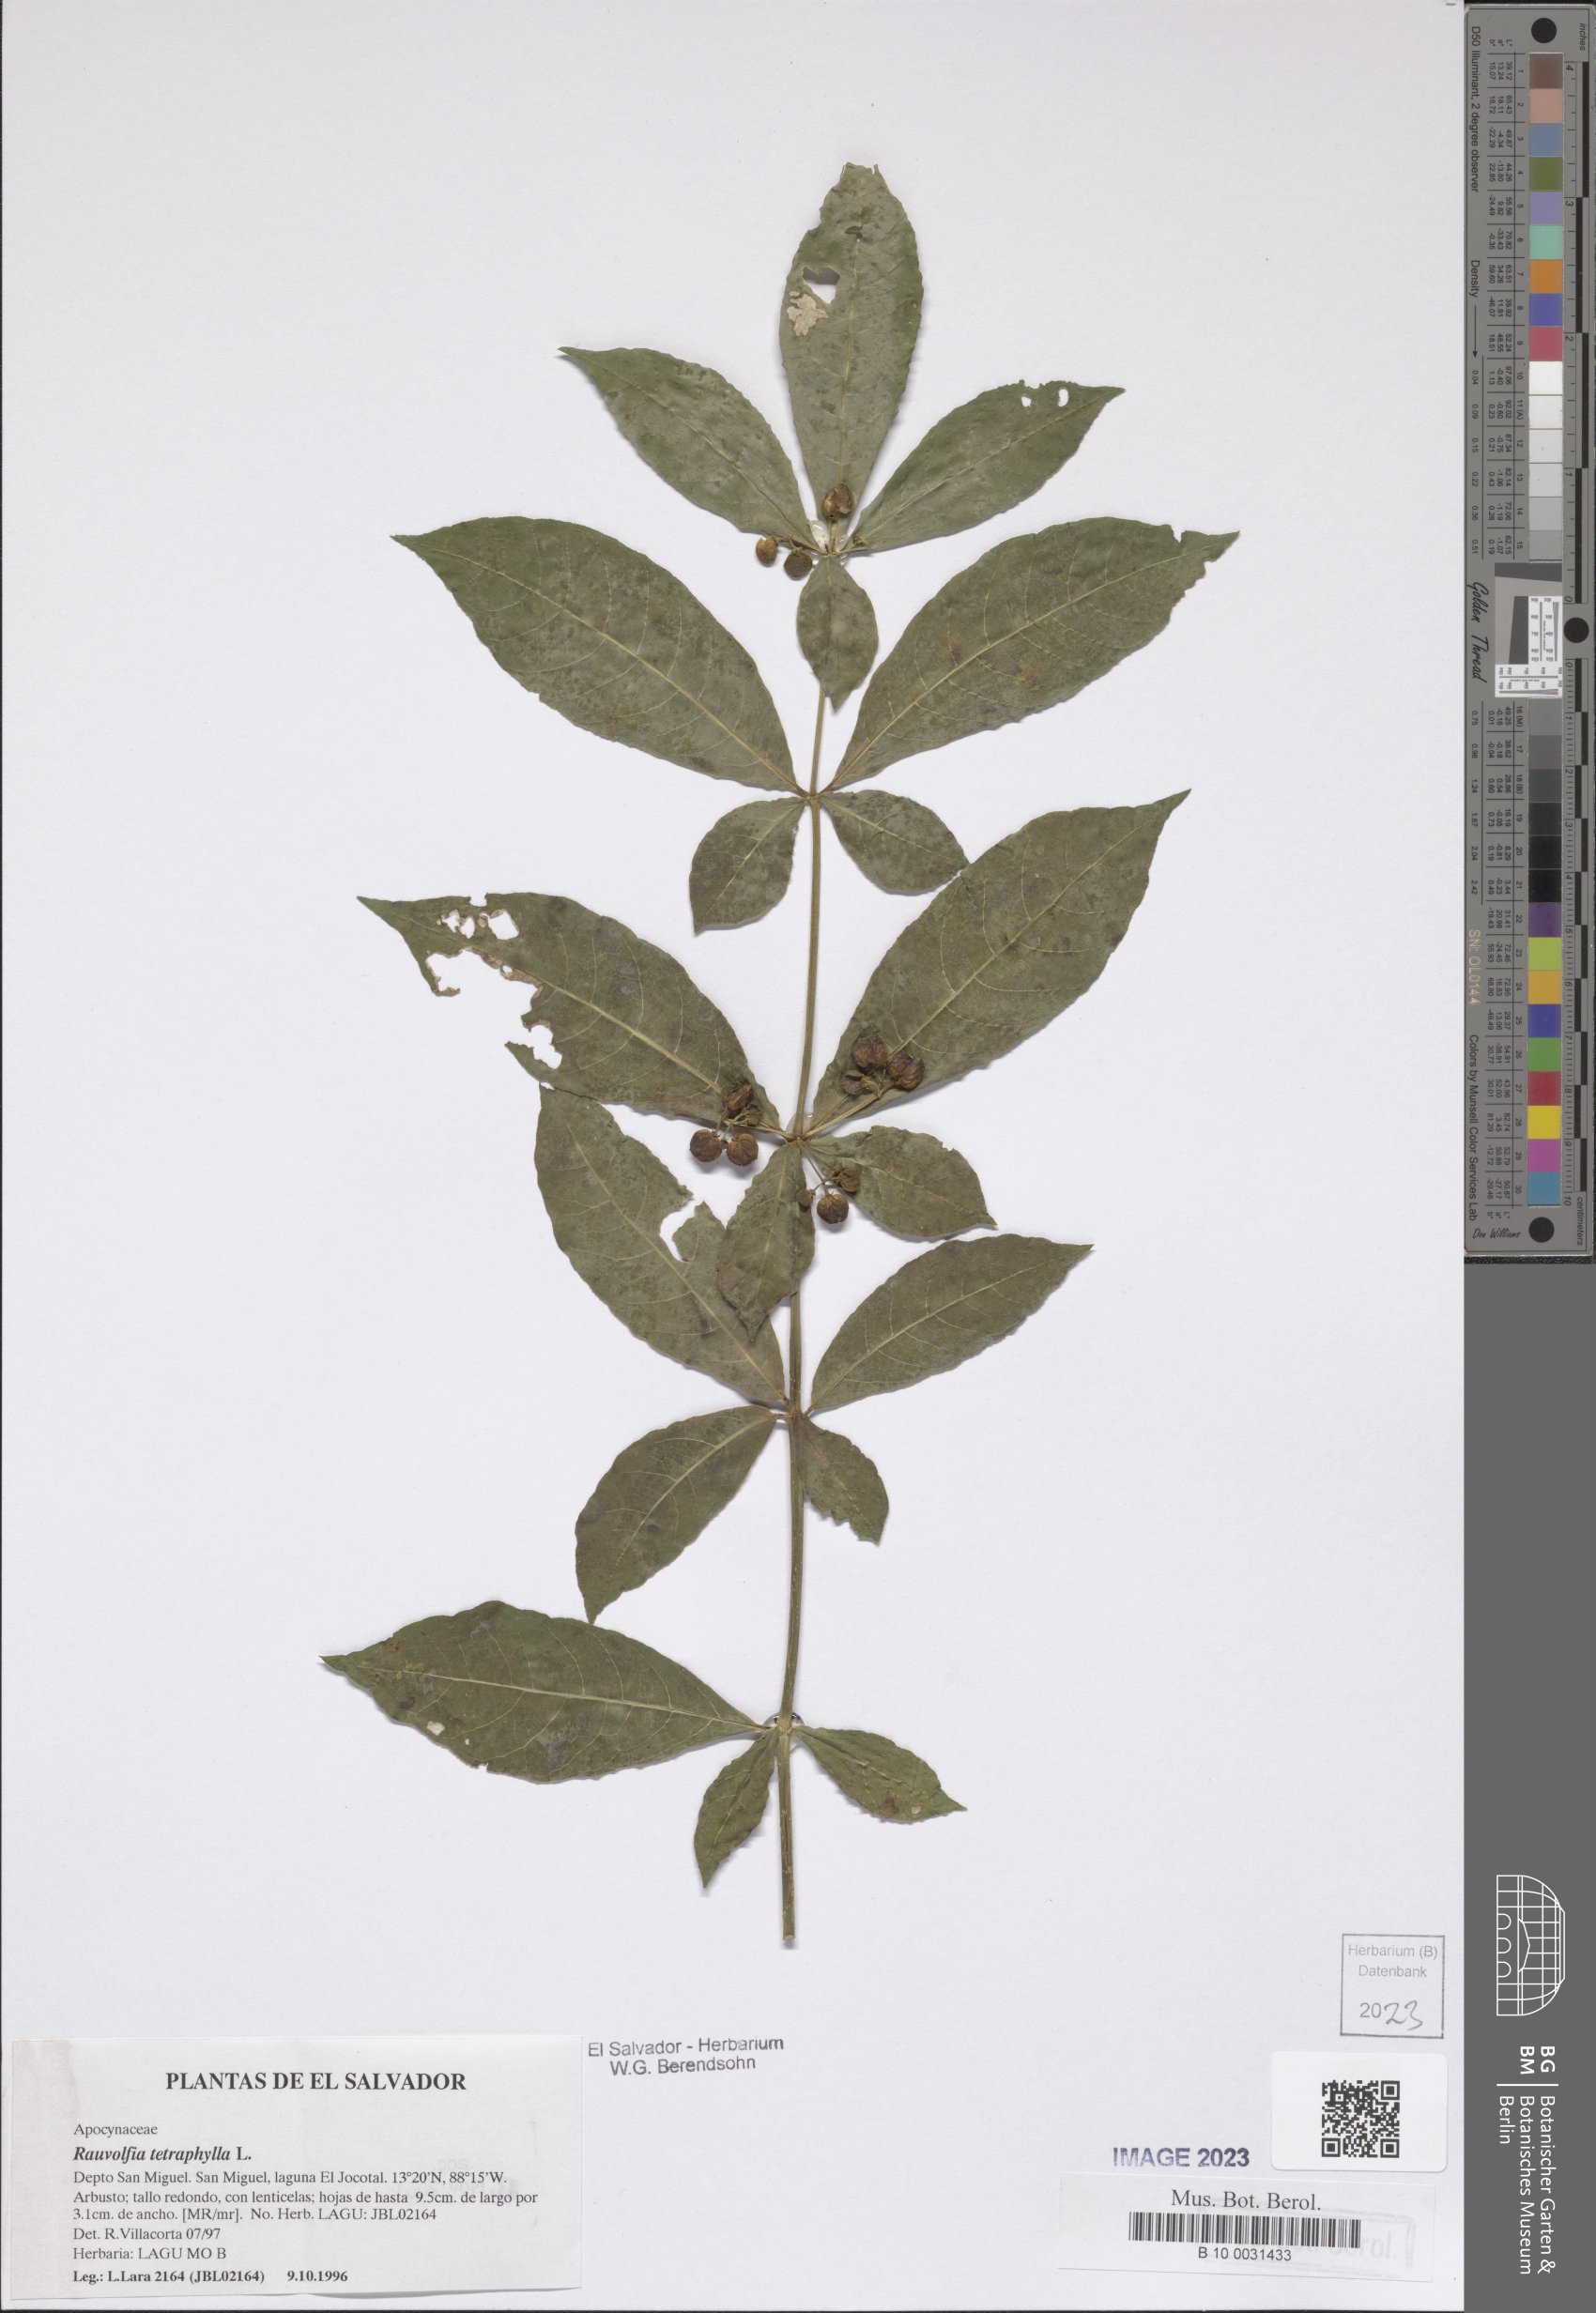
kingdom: Plantae
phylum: Tracheophyta
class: Magnoliopsida
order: Gentianales
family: Apocynaceae
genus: Rauvolfia
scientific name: Rauvolfia tetraphylla
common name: Four-leaf devil-pepper
